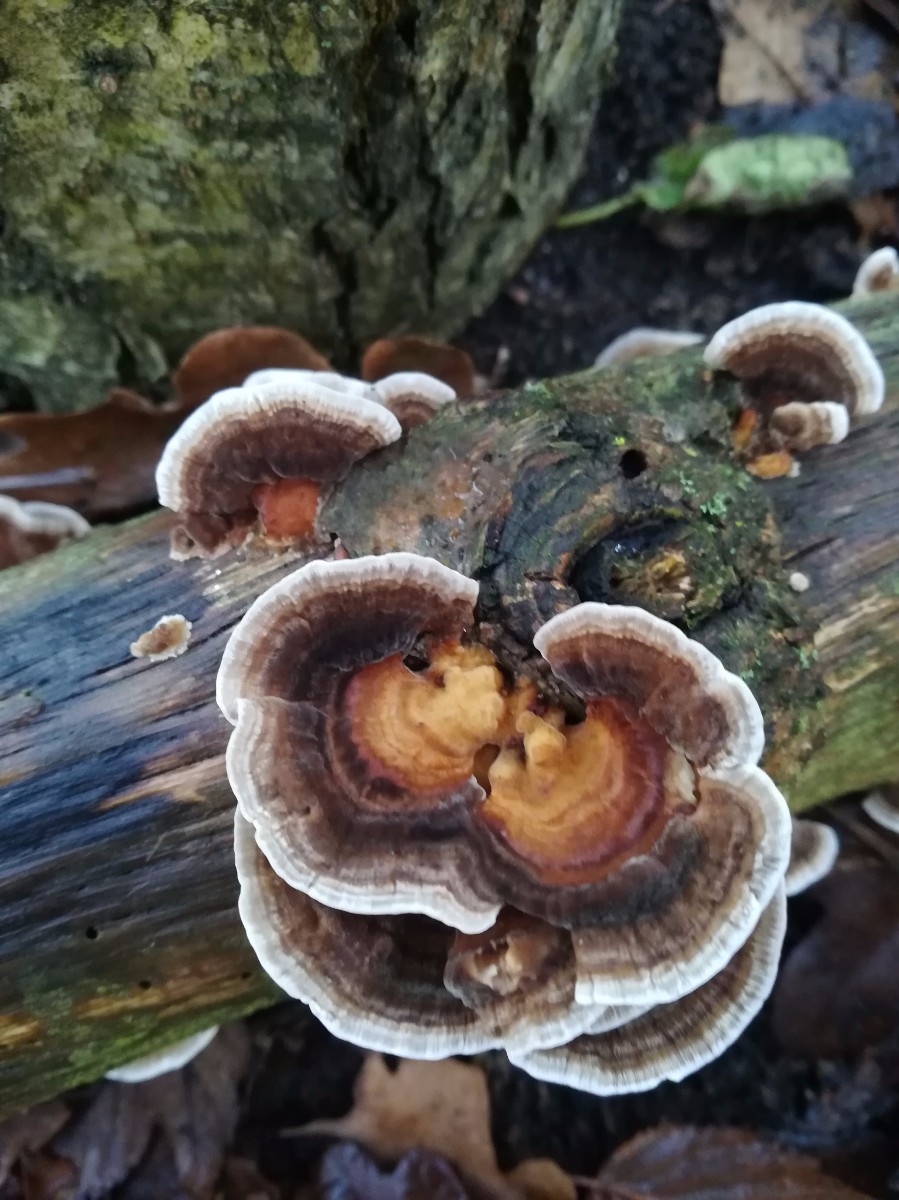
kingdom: Fungi
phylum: Basidiomycota
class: Agaricomycetes
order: Polyporales
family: Polyporaceae
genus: Trametes
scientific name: Trametes versicolor
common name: broget læderporesvamp
